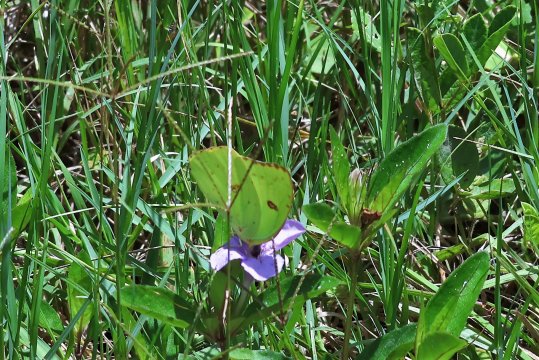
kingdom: Animalia
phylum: Arthropoda
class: Insecta
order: Lepidoptera
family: Pieridae
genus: Phoebis
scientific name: Phoebis sennae
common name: Cloudless Sulphur
